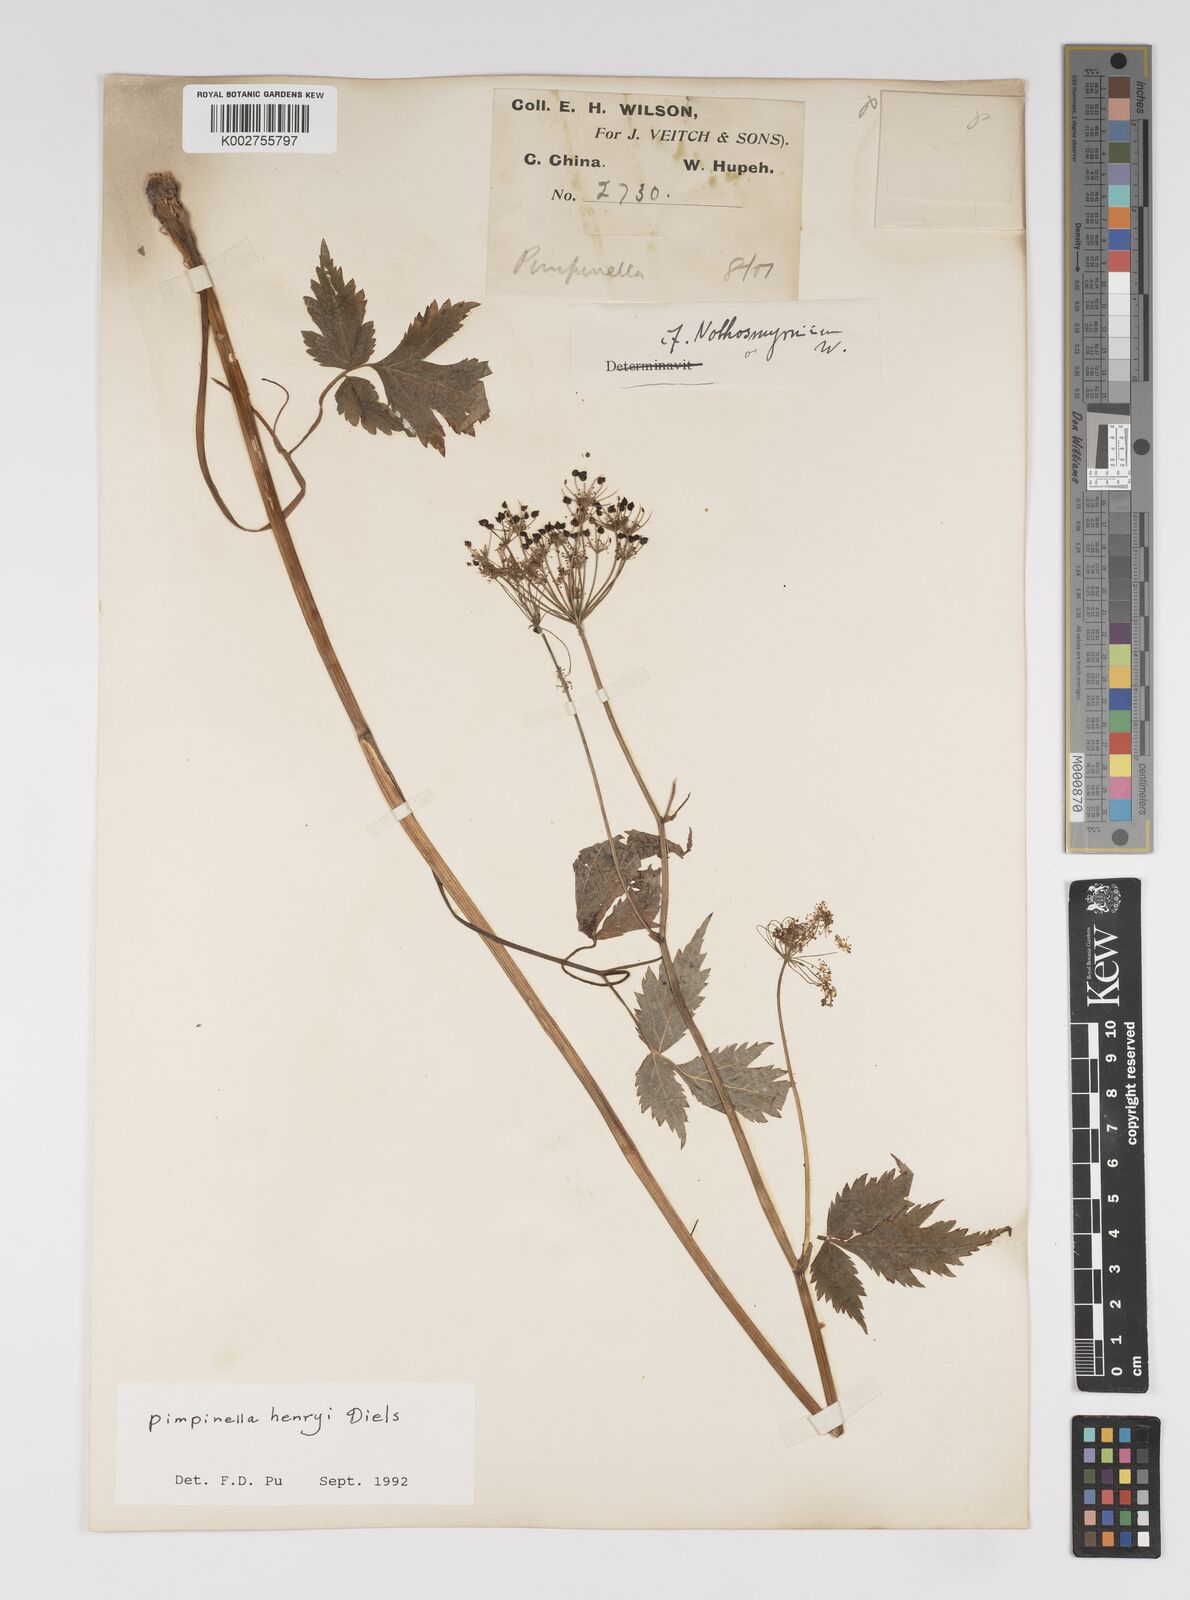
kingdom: Plantae
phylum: Tracheophyta
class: Magnoliopsida
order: Apiales
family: Apiaceae
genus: Pimpinella
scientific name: Pimpinella henryi
